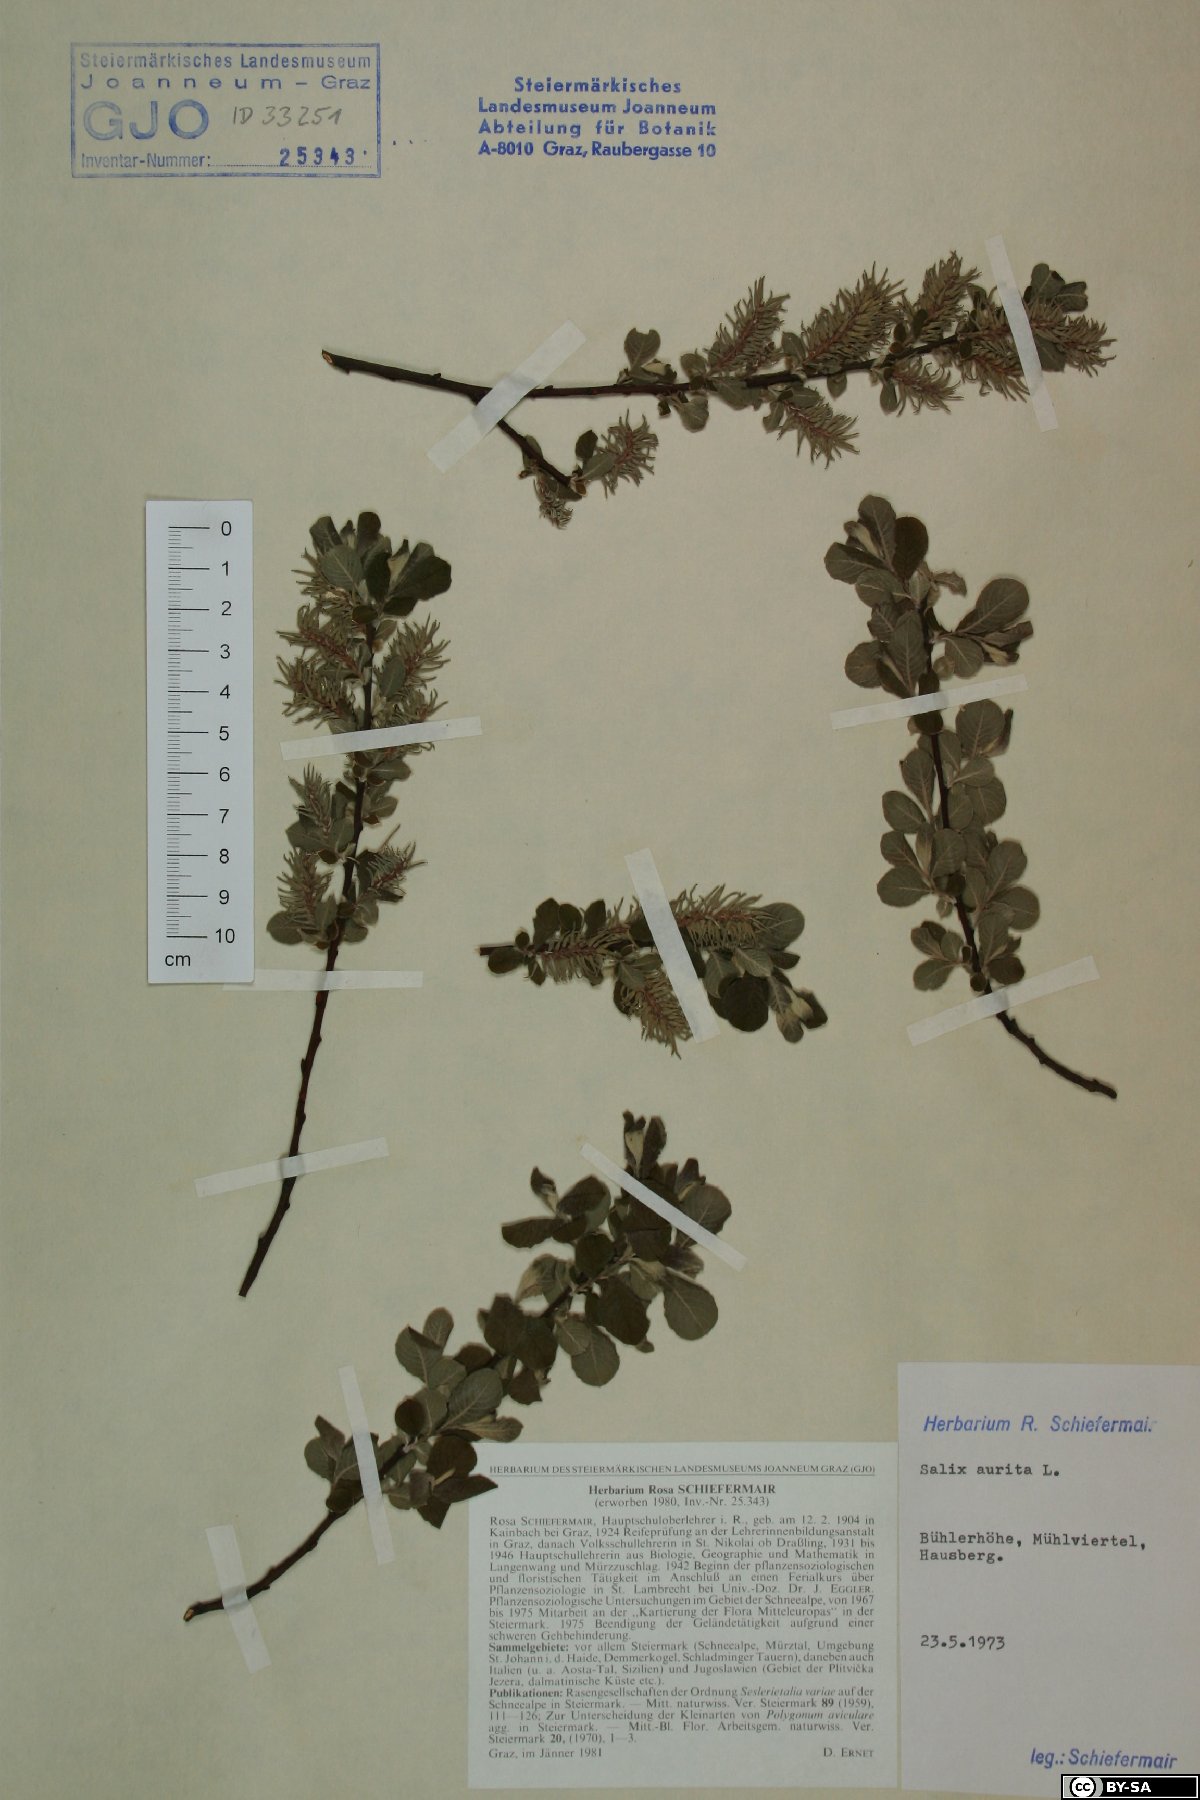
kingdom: Plantae
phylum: Tracheophyta
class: Magnoliopsida
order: Malpighiales
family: Salicaceae
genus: Salix
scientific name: Salix aurita
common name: Eared willow
